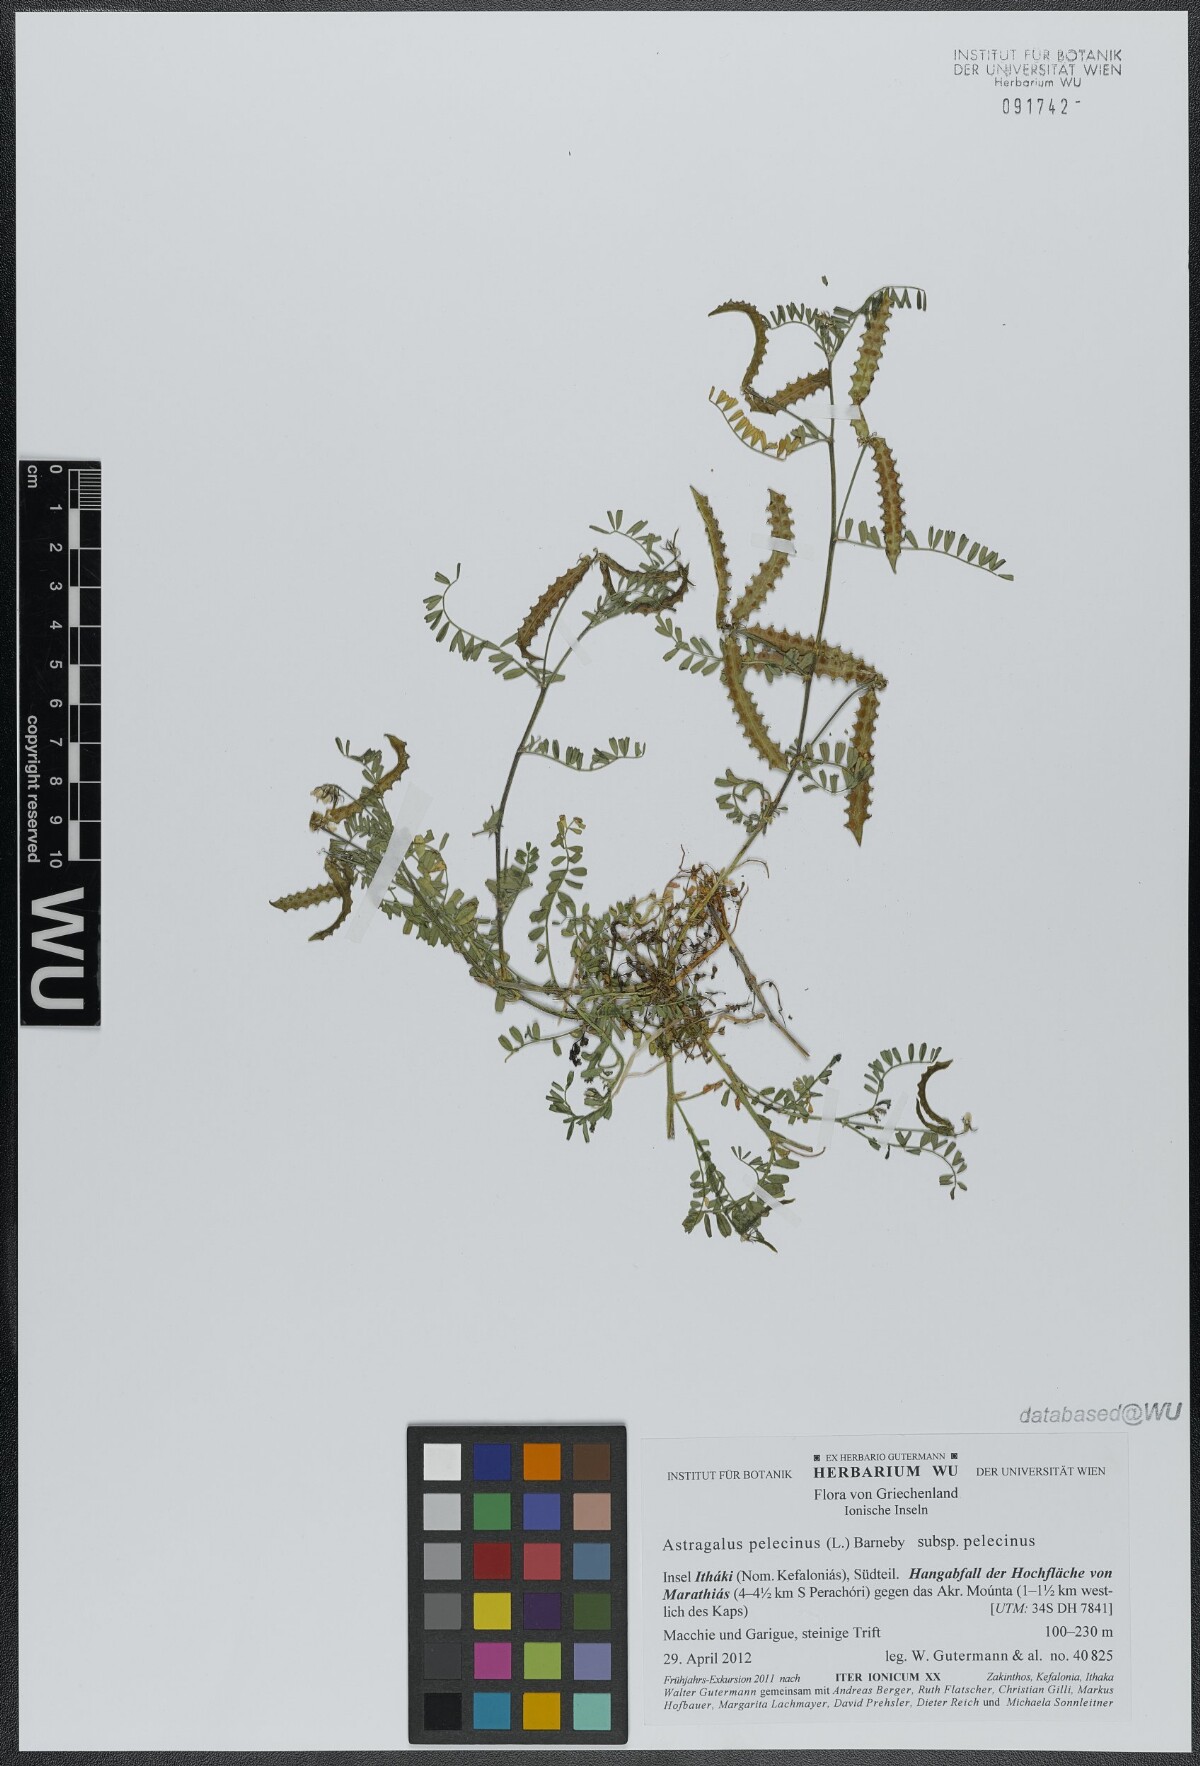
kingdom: Plantae
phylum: Tracheophyta
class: Magnoliopsida
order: Fabales
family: Fabaceae
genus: Biserrula
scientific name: Biserrula pelecinus
